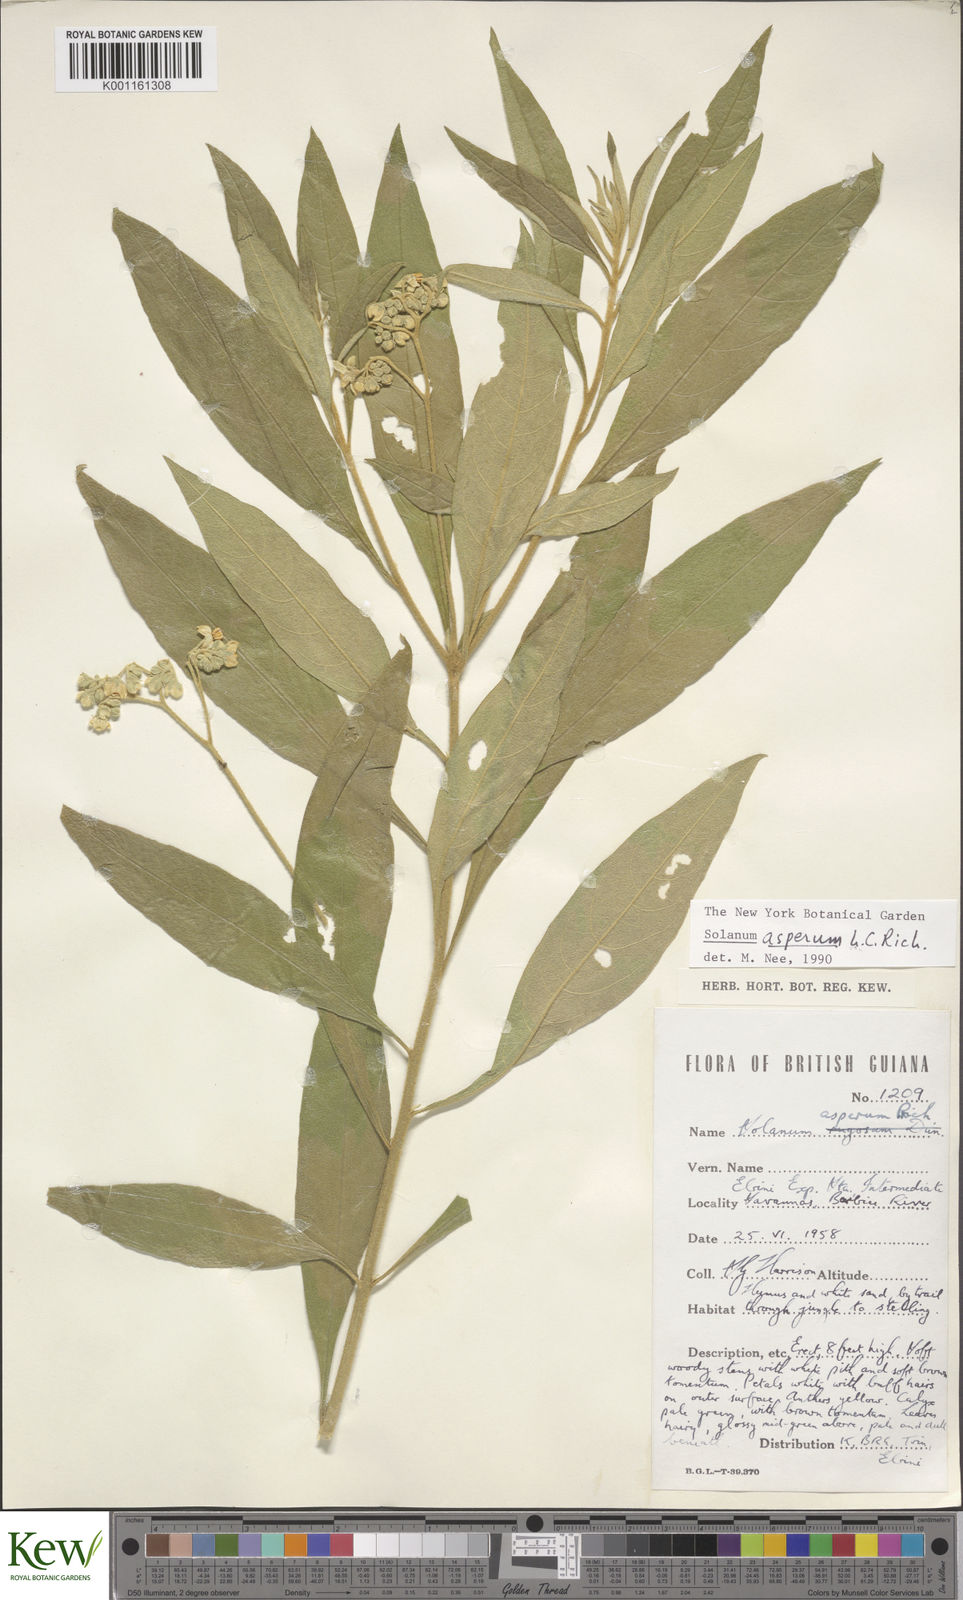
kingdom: Plantae
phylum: Tracheophyta
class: Magnoliopsida
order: Solanales
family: Solanaceae
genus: Solanum
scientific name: Solanum asperum
